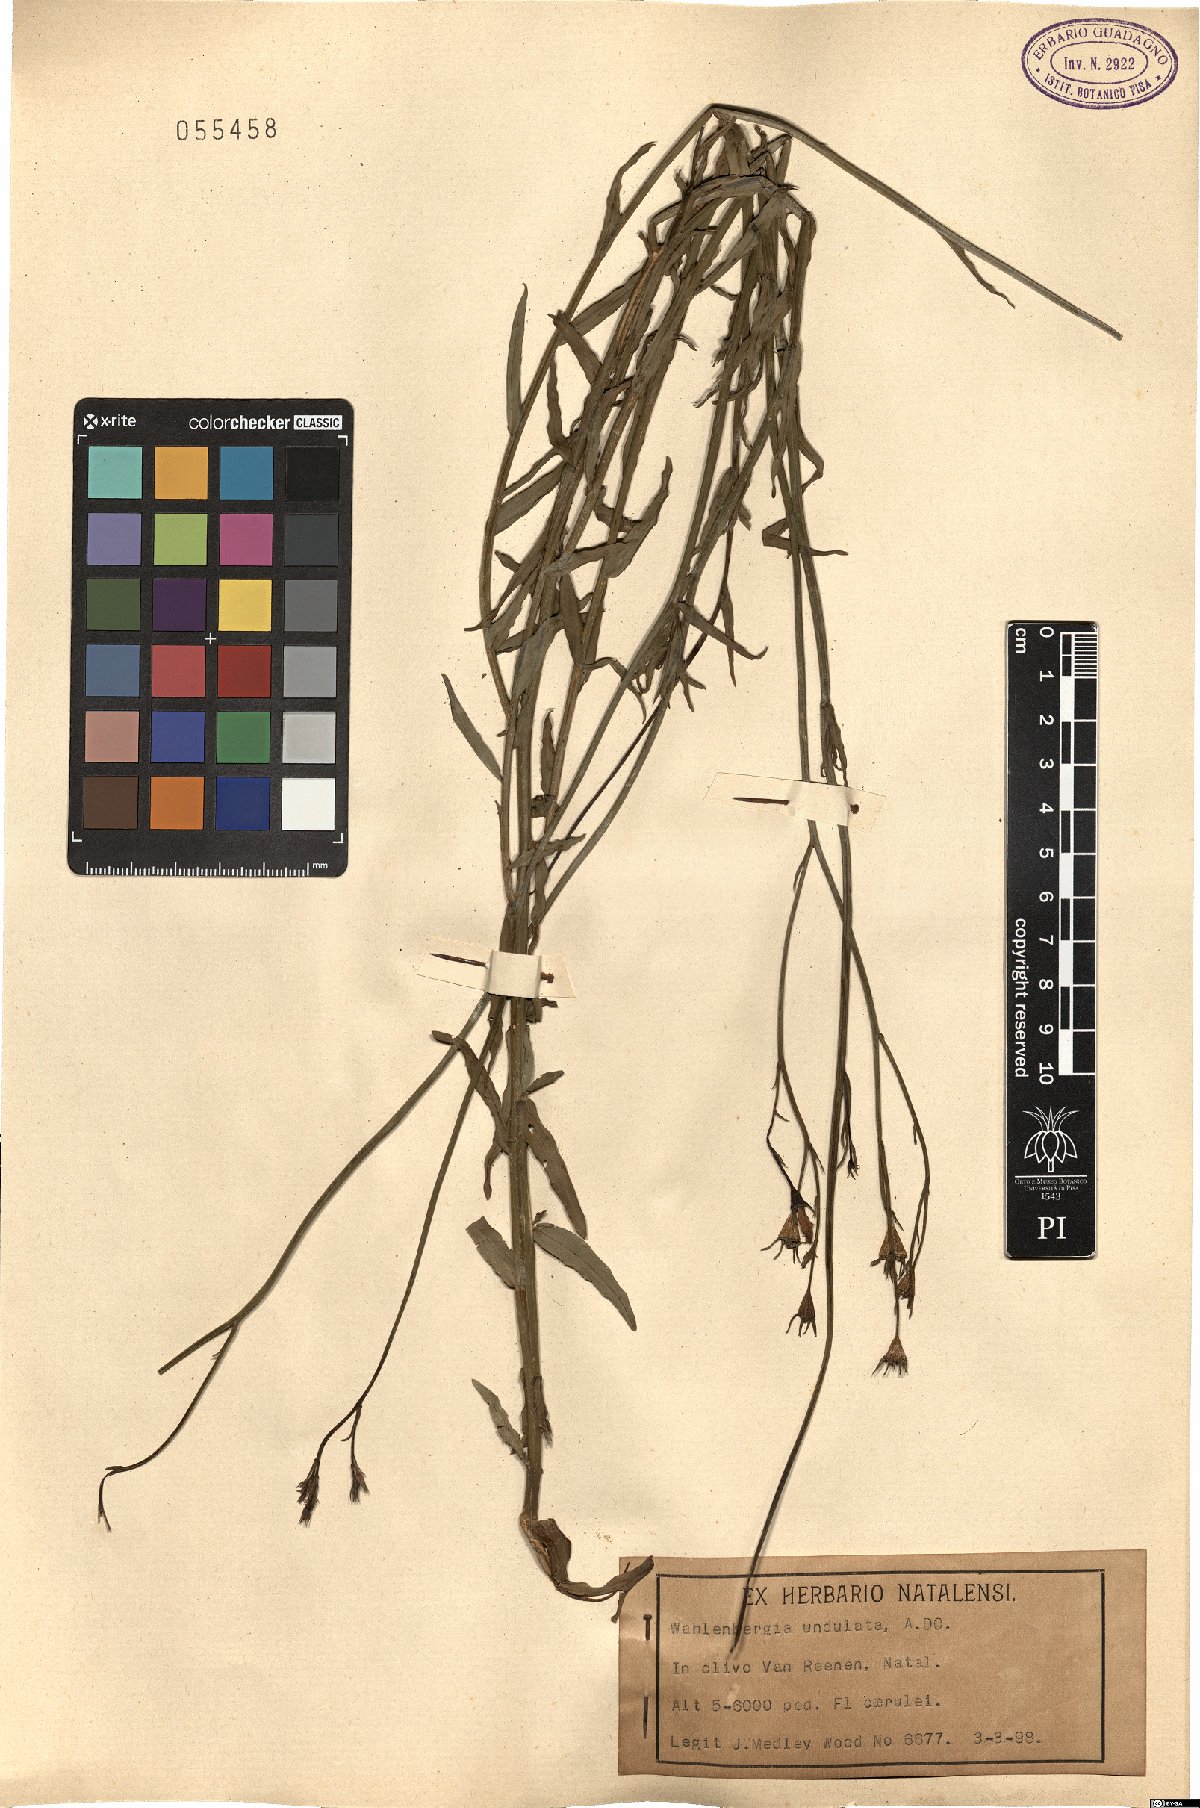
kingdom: Plantae
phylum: Tracheophyta
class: Magnoliopsida
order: Asterales
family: Campanulaceae
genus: Wahlenbergia
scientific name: Wahlenbergia undulata
